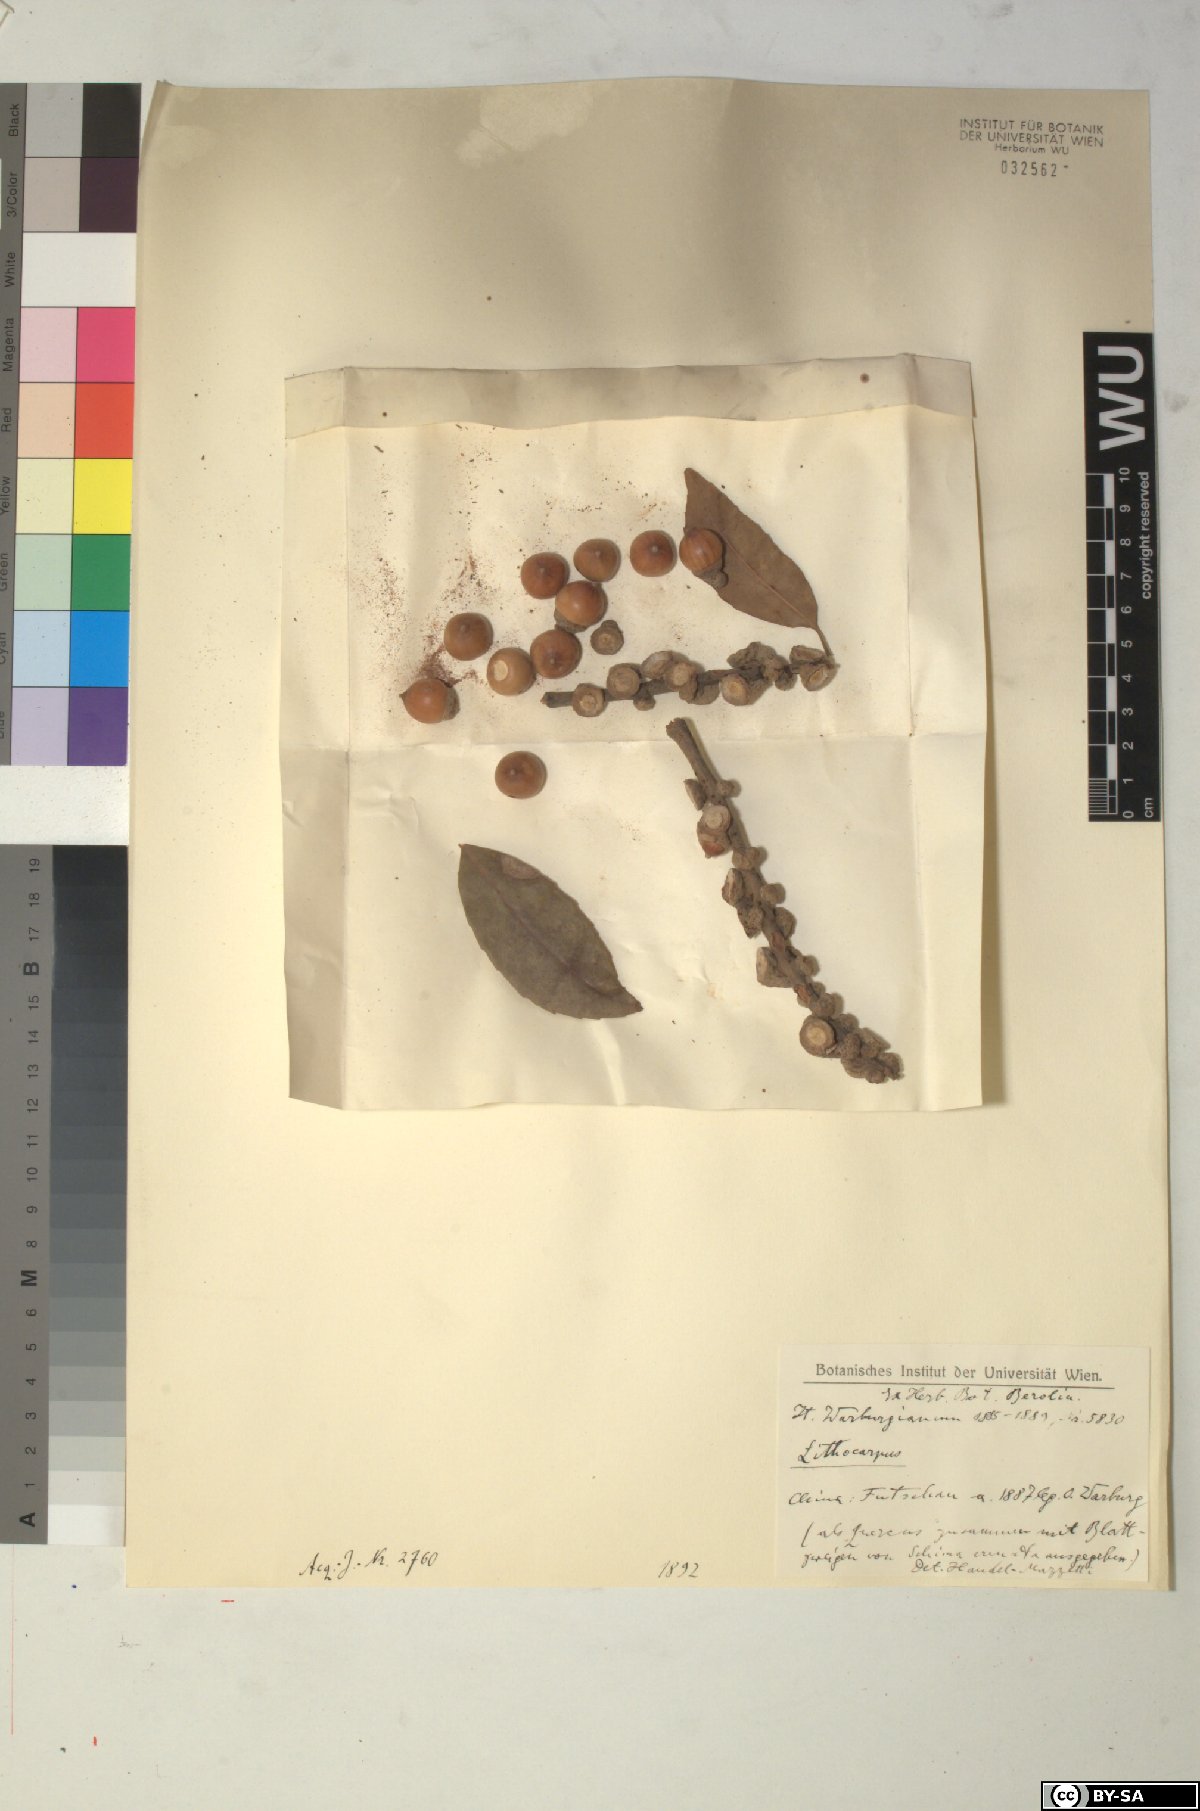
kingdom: Plantae
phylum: Tracheophyta
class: Magnoliopsida
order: Fagales
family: Fagaceae
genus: Lithocarpus
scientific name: Lithocarpus
